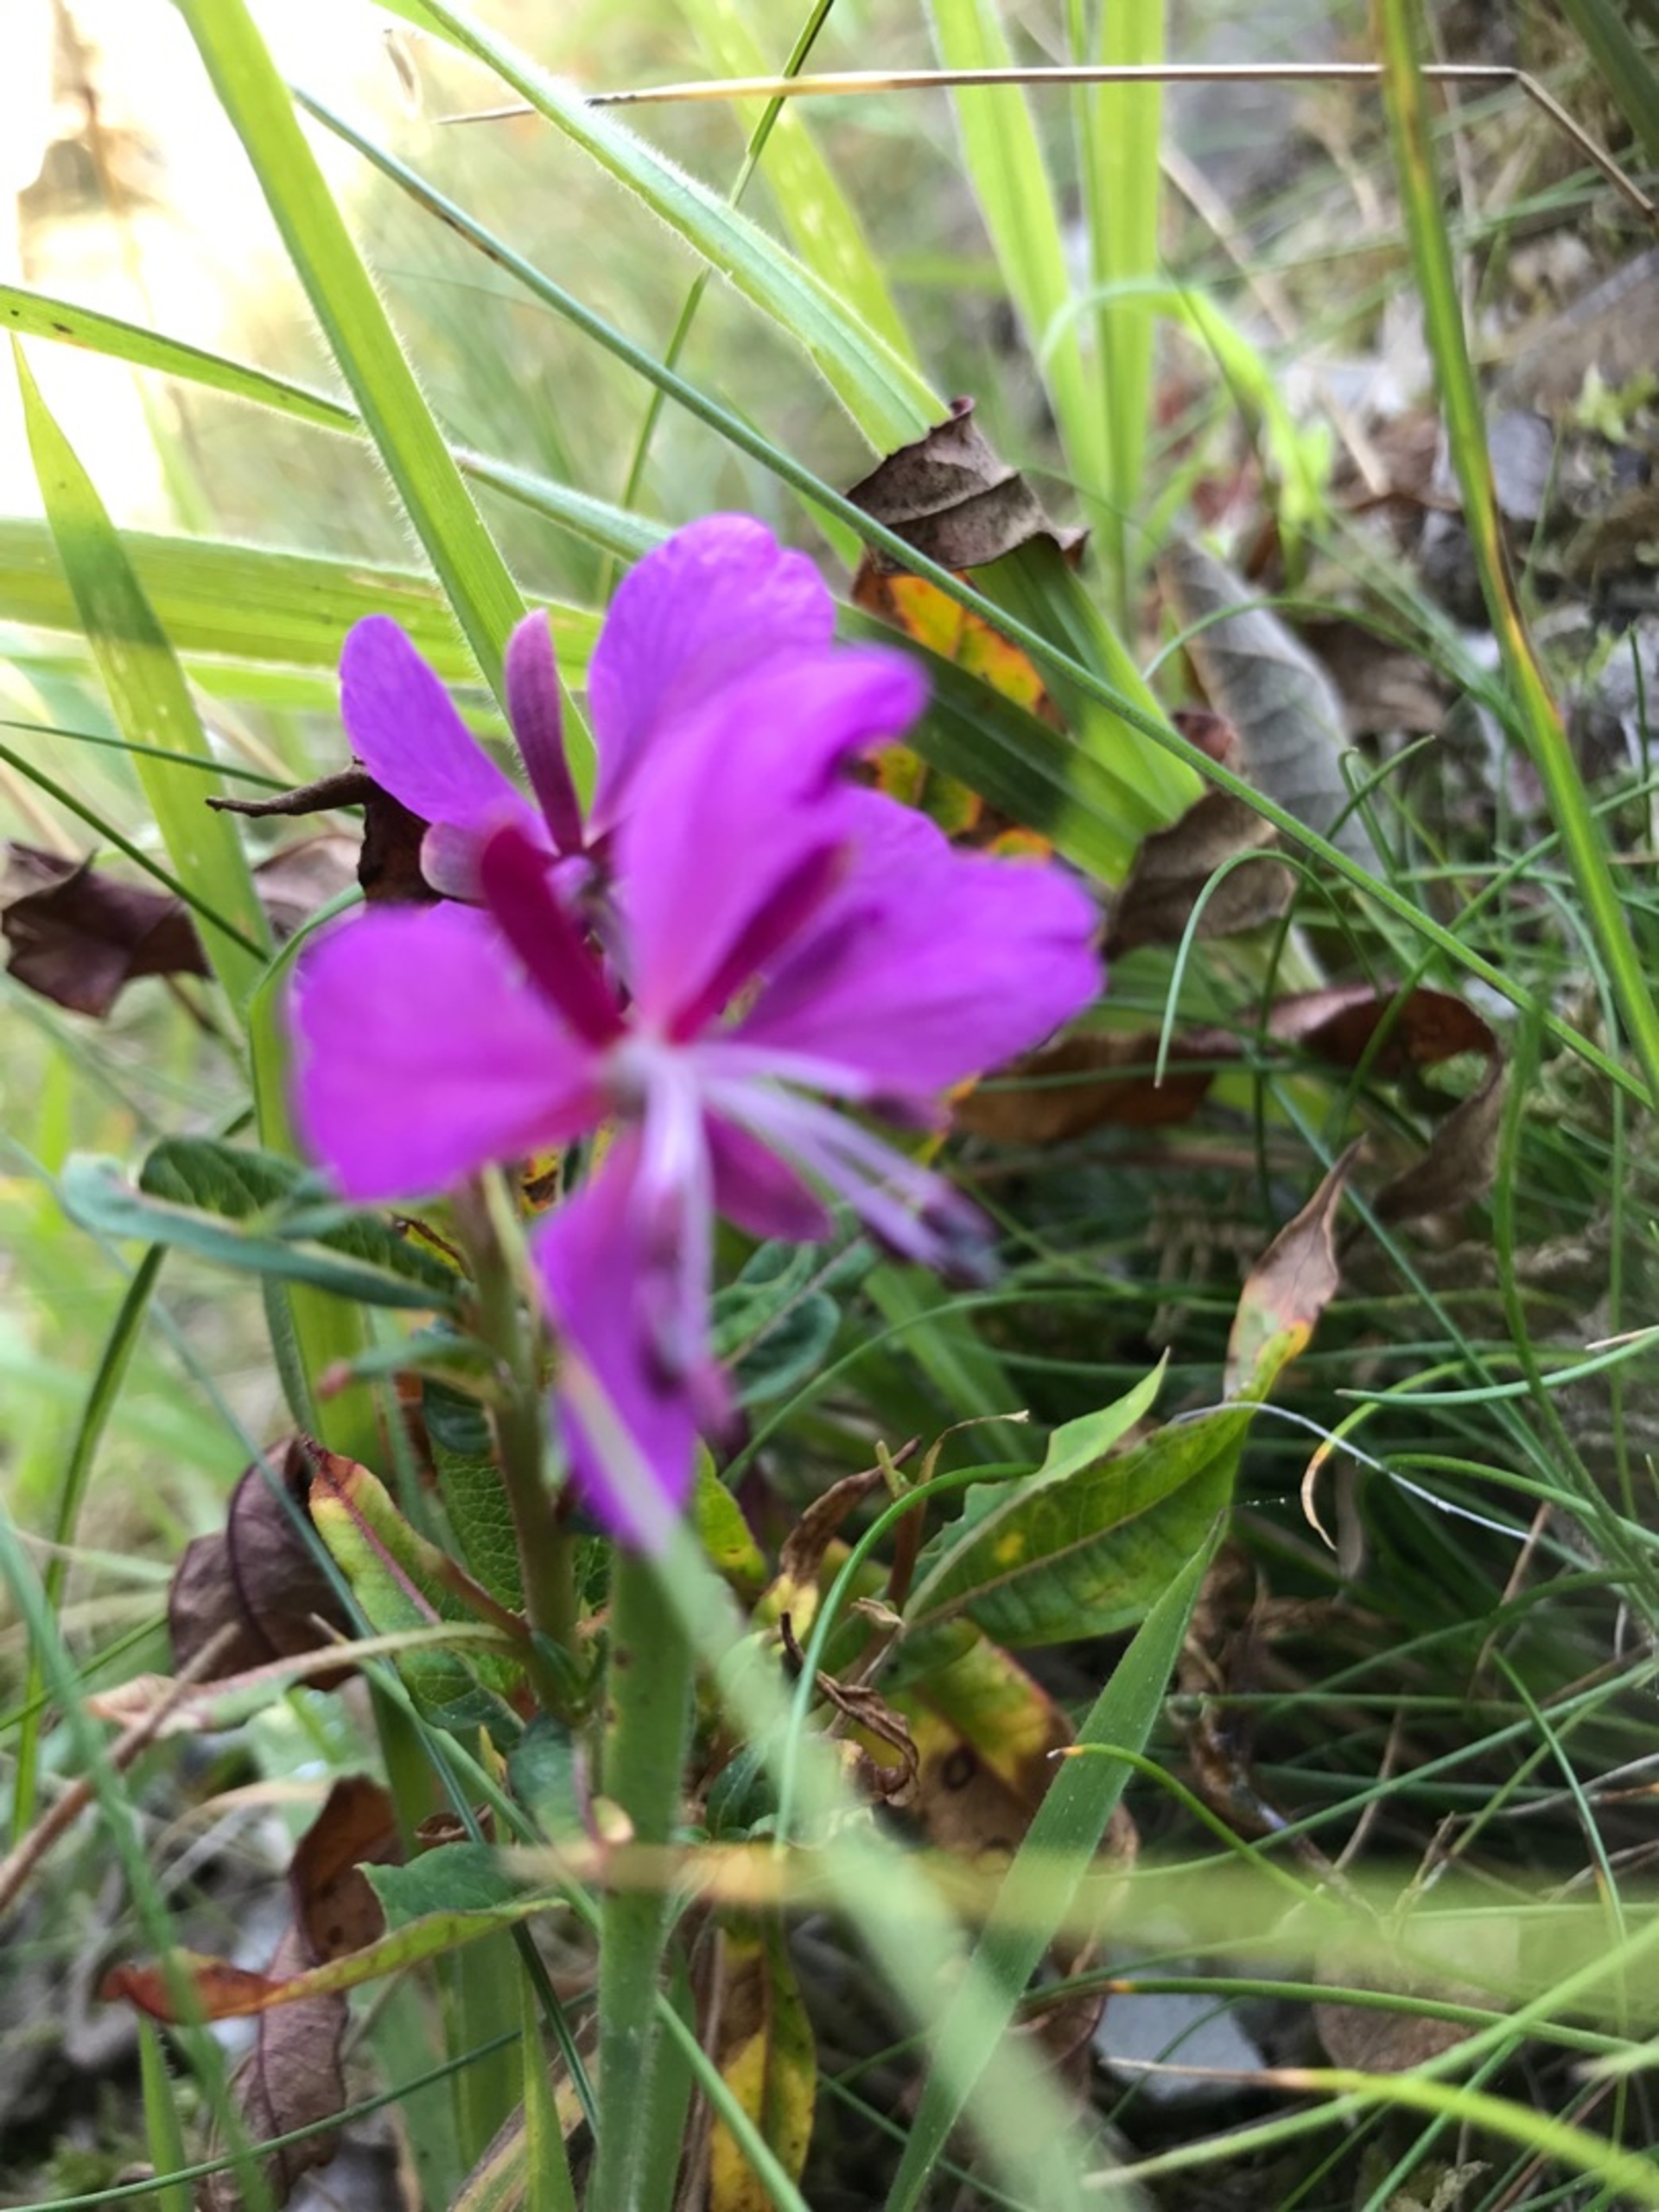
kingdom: Plantae
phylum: Tracheophyta
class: Magnoliopsida
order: Myrtales
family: Onagraceae
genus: Chamaenerion
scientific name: Chamaenerion angustifolium
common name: Gederams
